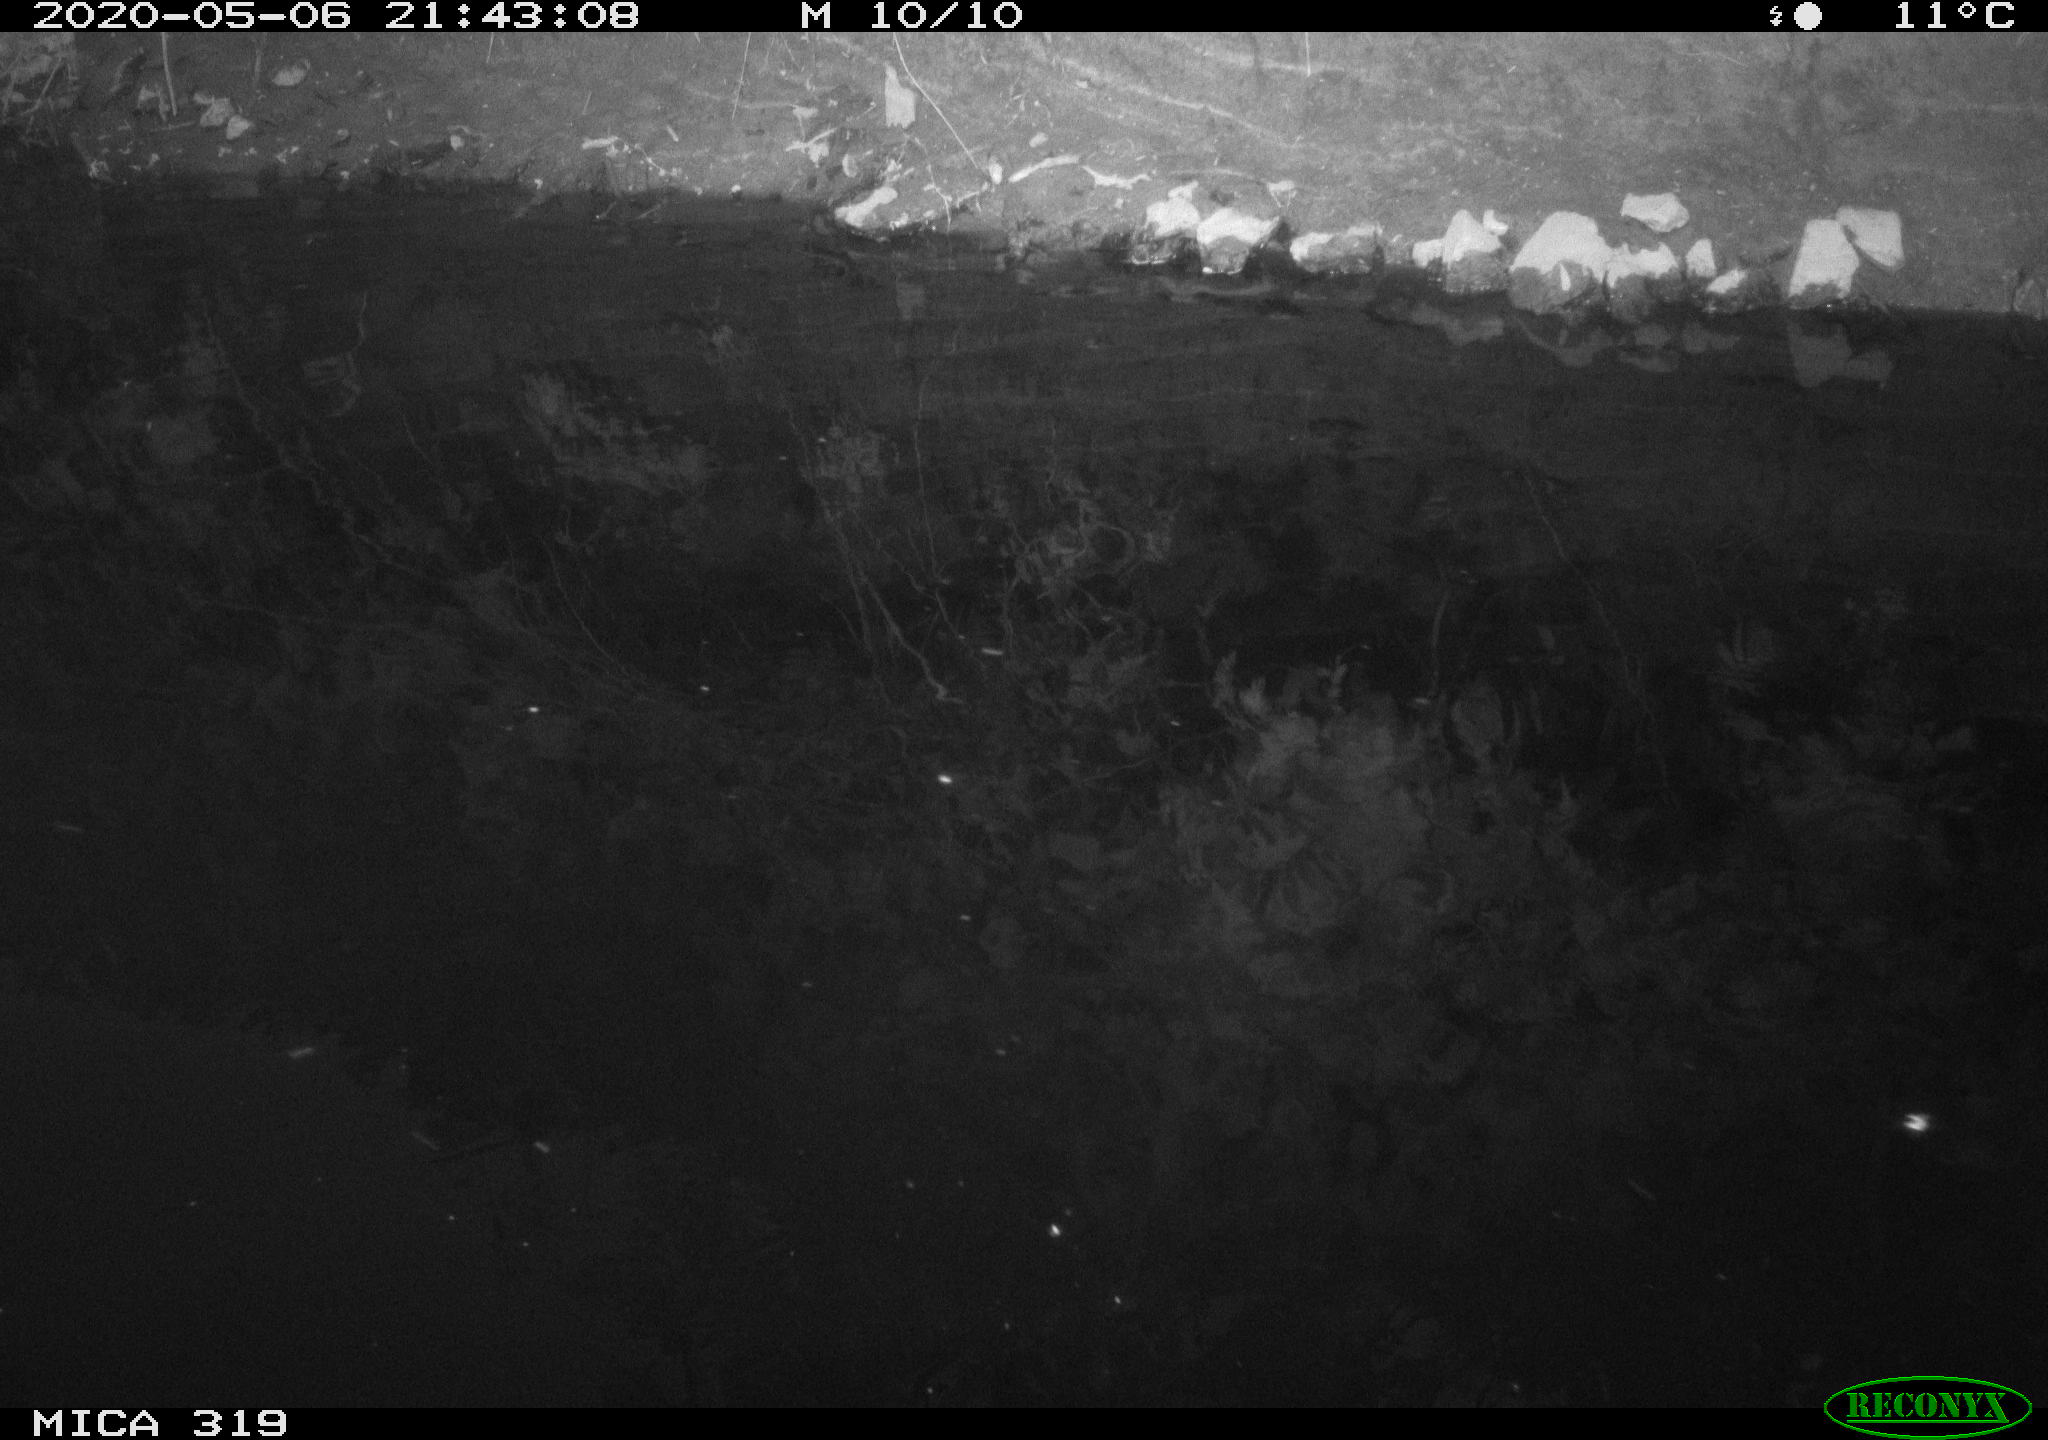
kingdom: Animalia
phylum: Chordata
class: Aves
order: Anseriformes
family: Anatidae
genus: Anas
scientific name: Anas platyrhynchos
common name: Mallard
